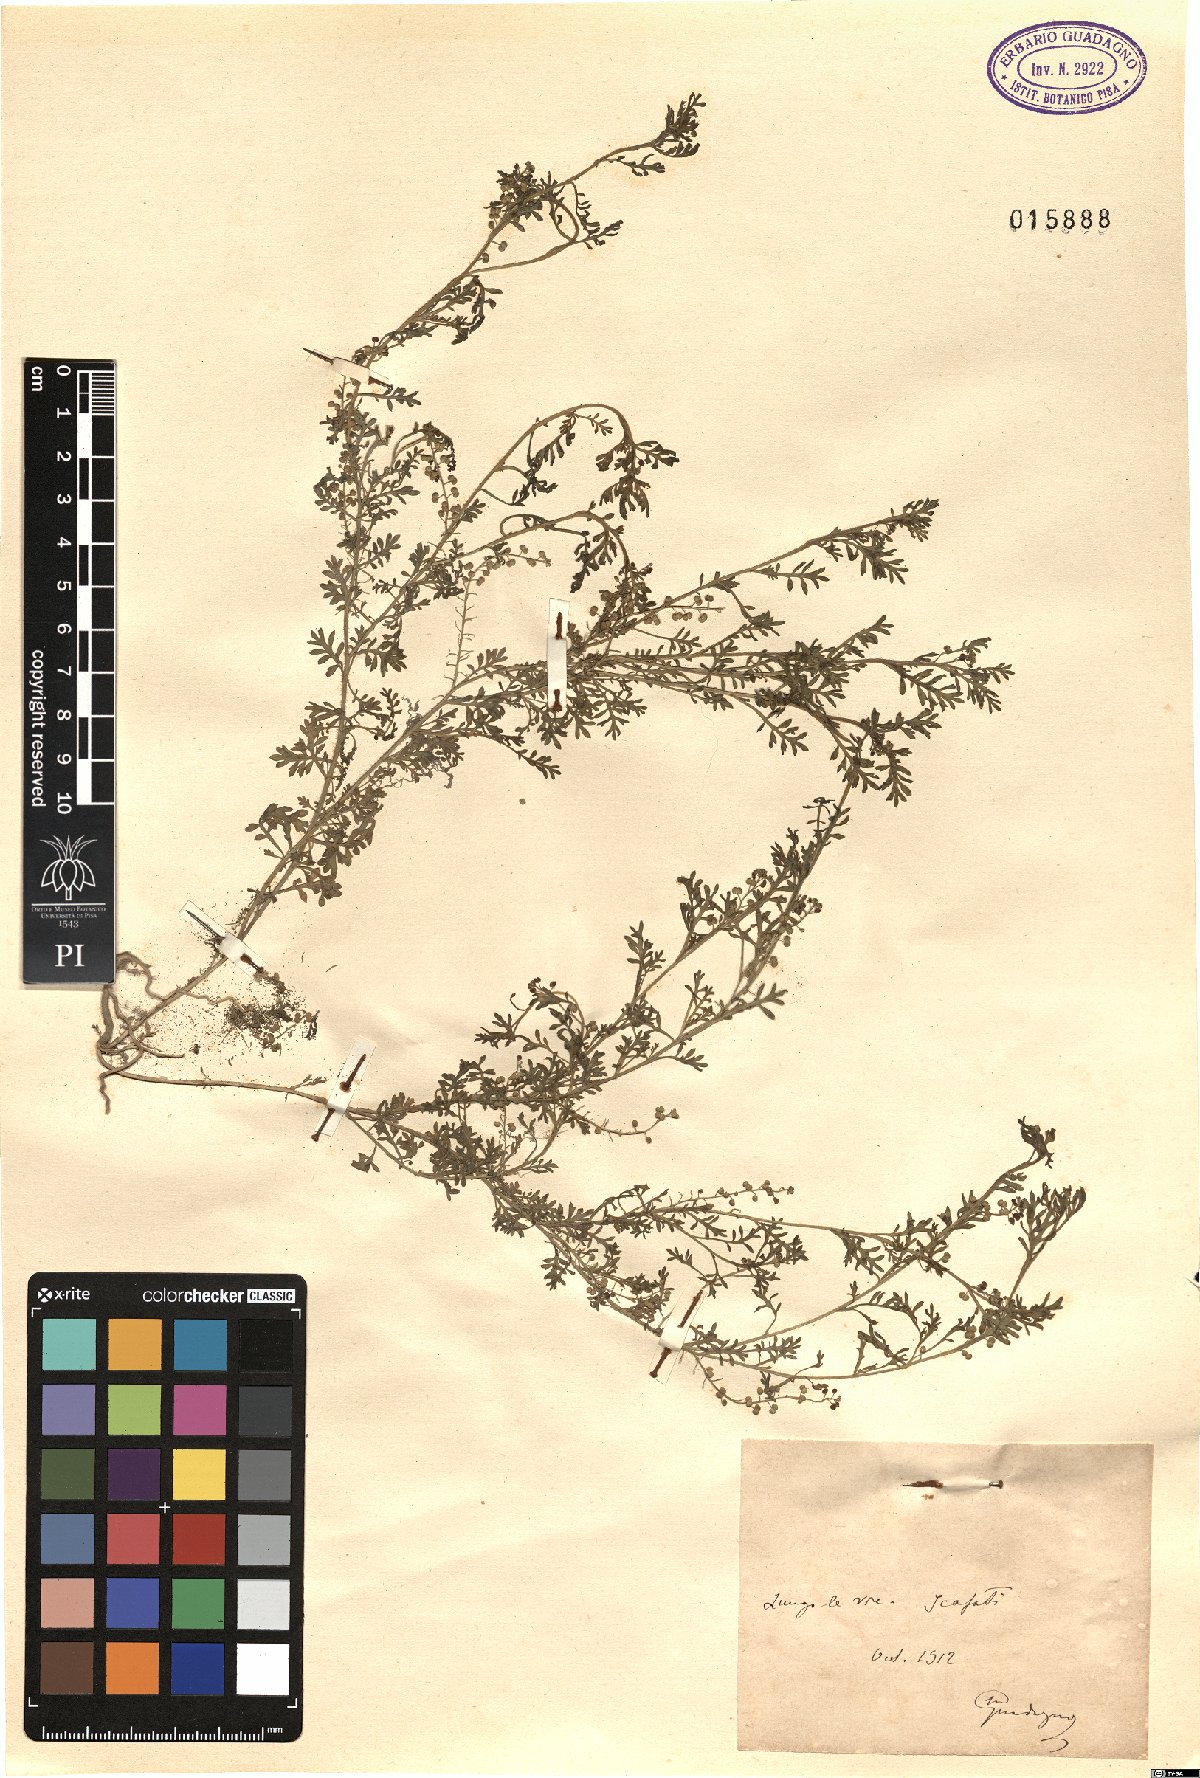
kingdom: Plantae
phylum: Tracheophyta
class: Magnoliopsida
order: Brassicales
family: Brassicaceae
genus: Coronopus
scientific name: Coronopus
